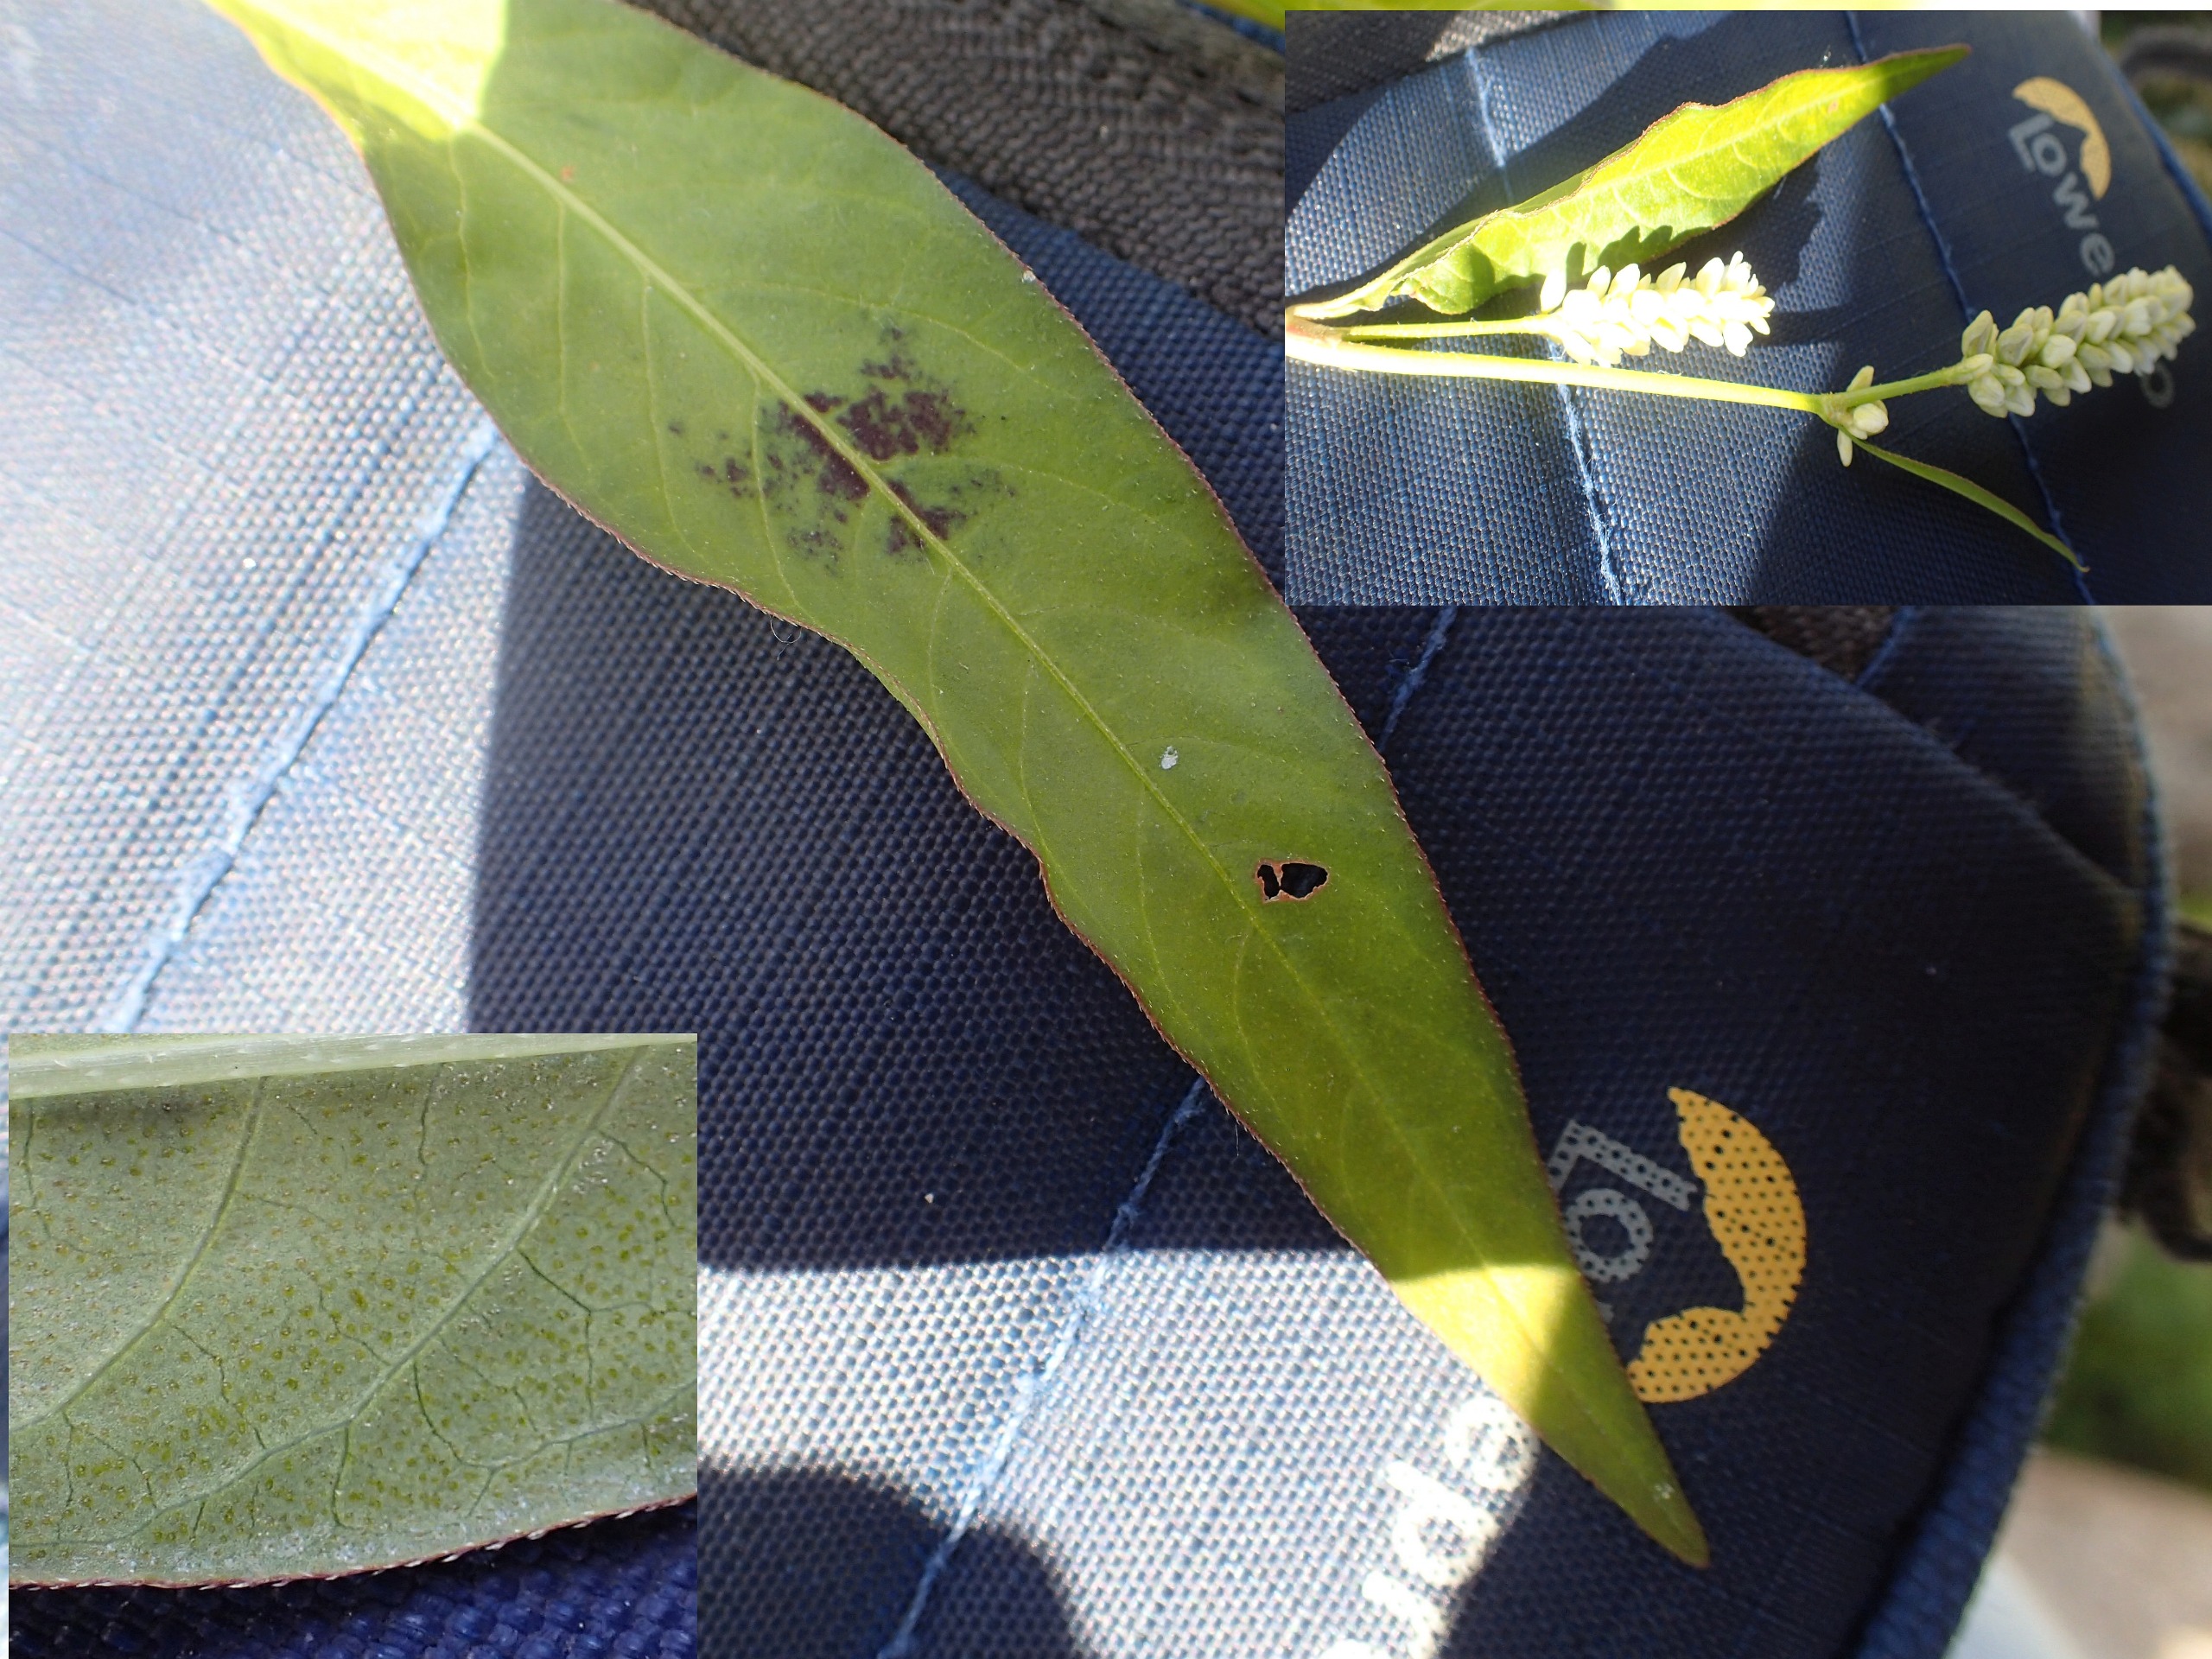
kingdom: Plantae
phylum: Tracheophyta
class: Magnoliopsida
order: Caryophyllales
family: Polygonaceae
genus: Persicaria
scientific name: Persicaria lapathifolia
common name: Bleg pileurt
